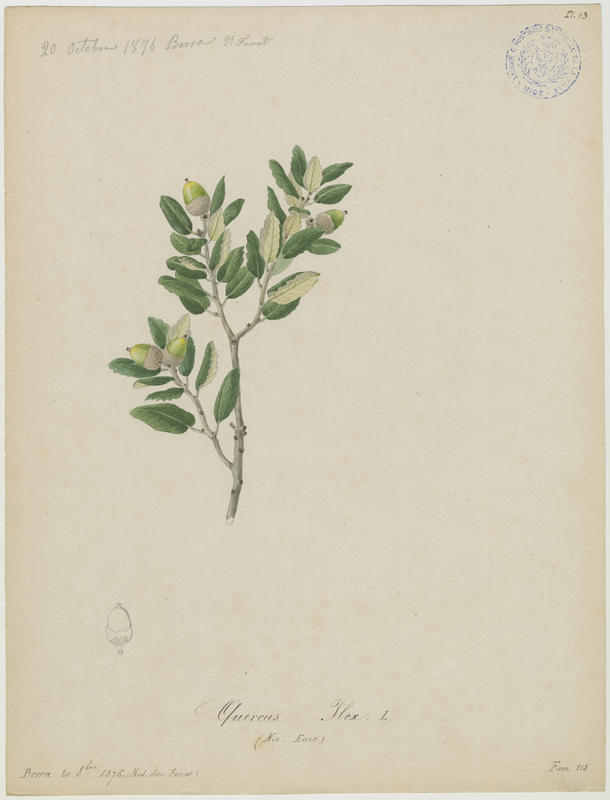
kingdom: Plantae
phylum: Tracheophyta
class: Magnoliopsida
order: Fagales
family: Fagaceae
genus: Quercus
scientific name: Quercus ilex
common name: Evergreen oak
